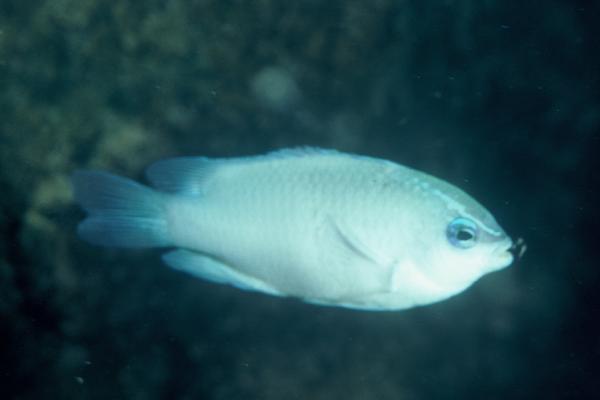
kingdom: Animalia
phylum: Chordata
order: Perciformes
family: Pomacentridae
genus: Chrysiptera
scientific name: Chrysiptera glauca
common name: Grey demoiselle
